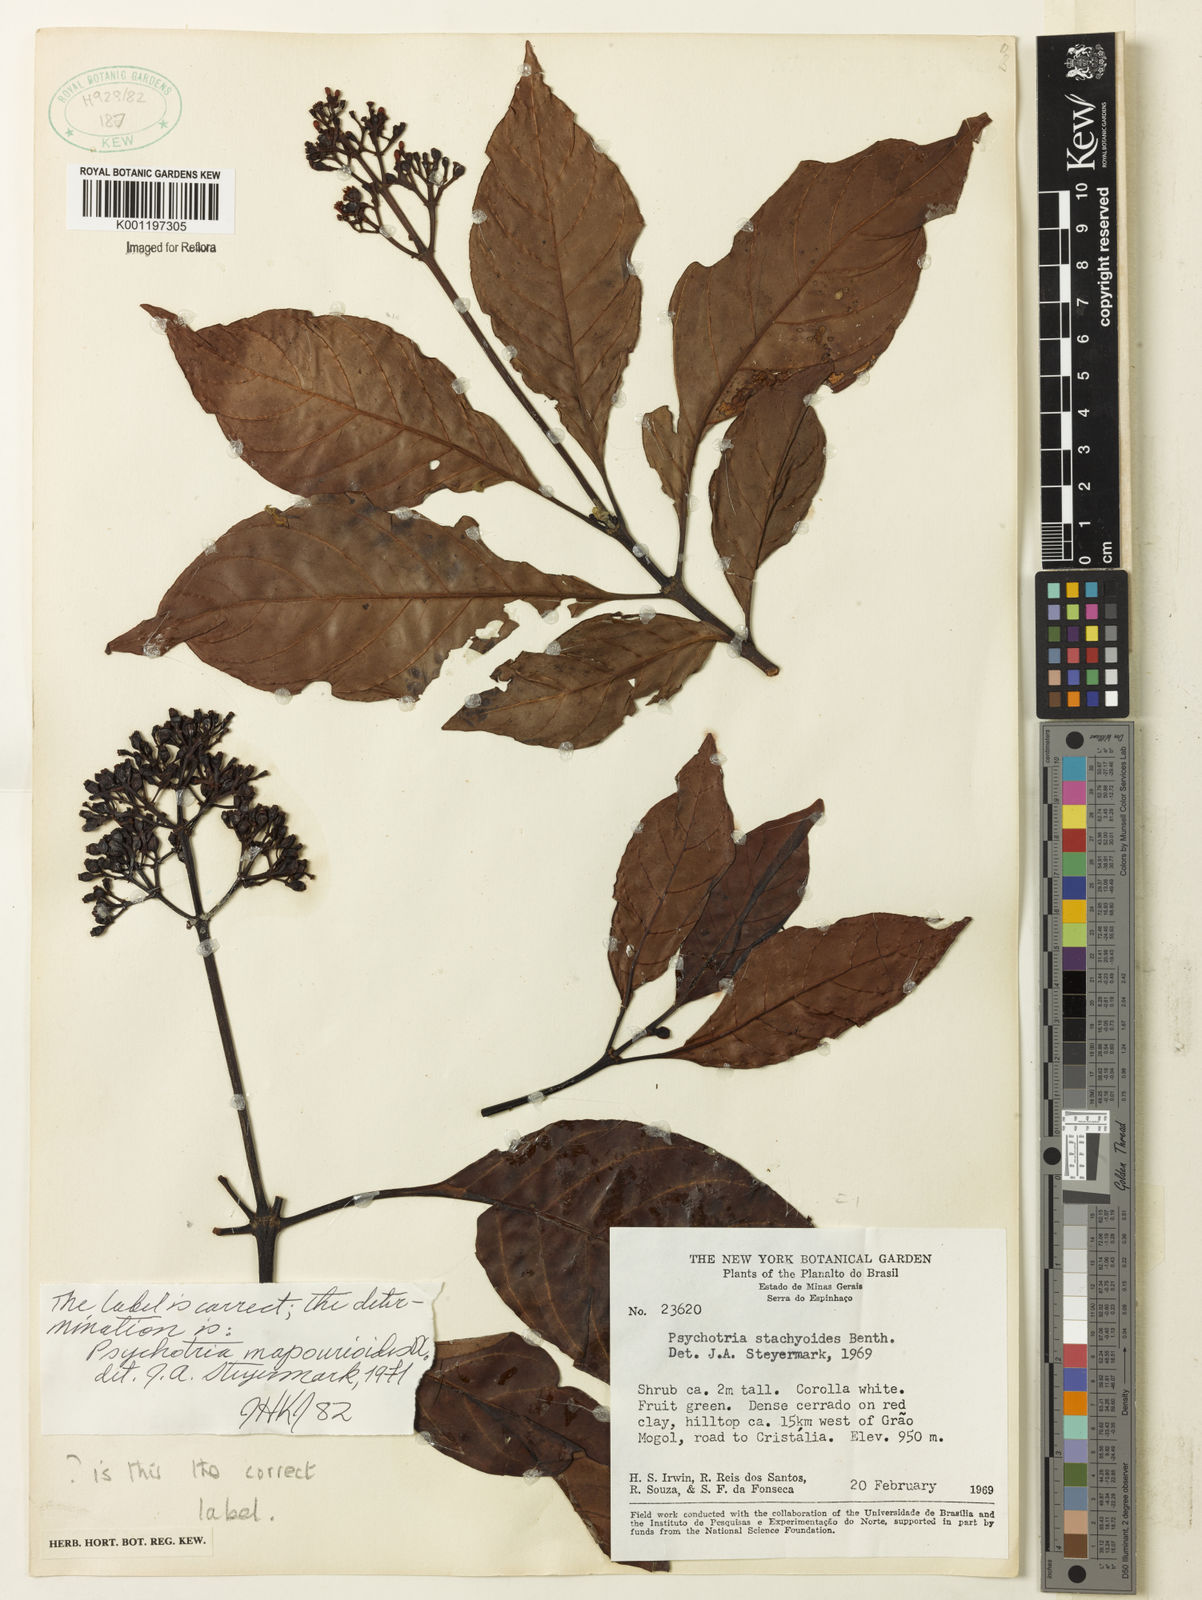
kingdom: Plantae
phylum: Tracheophyta
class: Magnoliopsida
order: Gentianales
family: Rubiaceae
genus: Psychotria
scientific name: Psychotria pedunculosa
